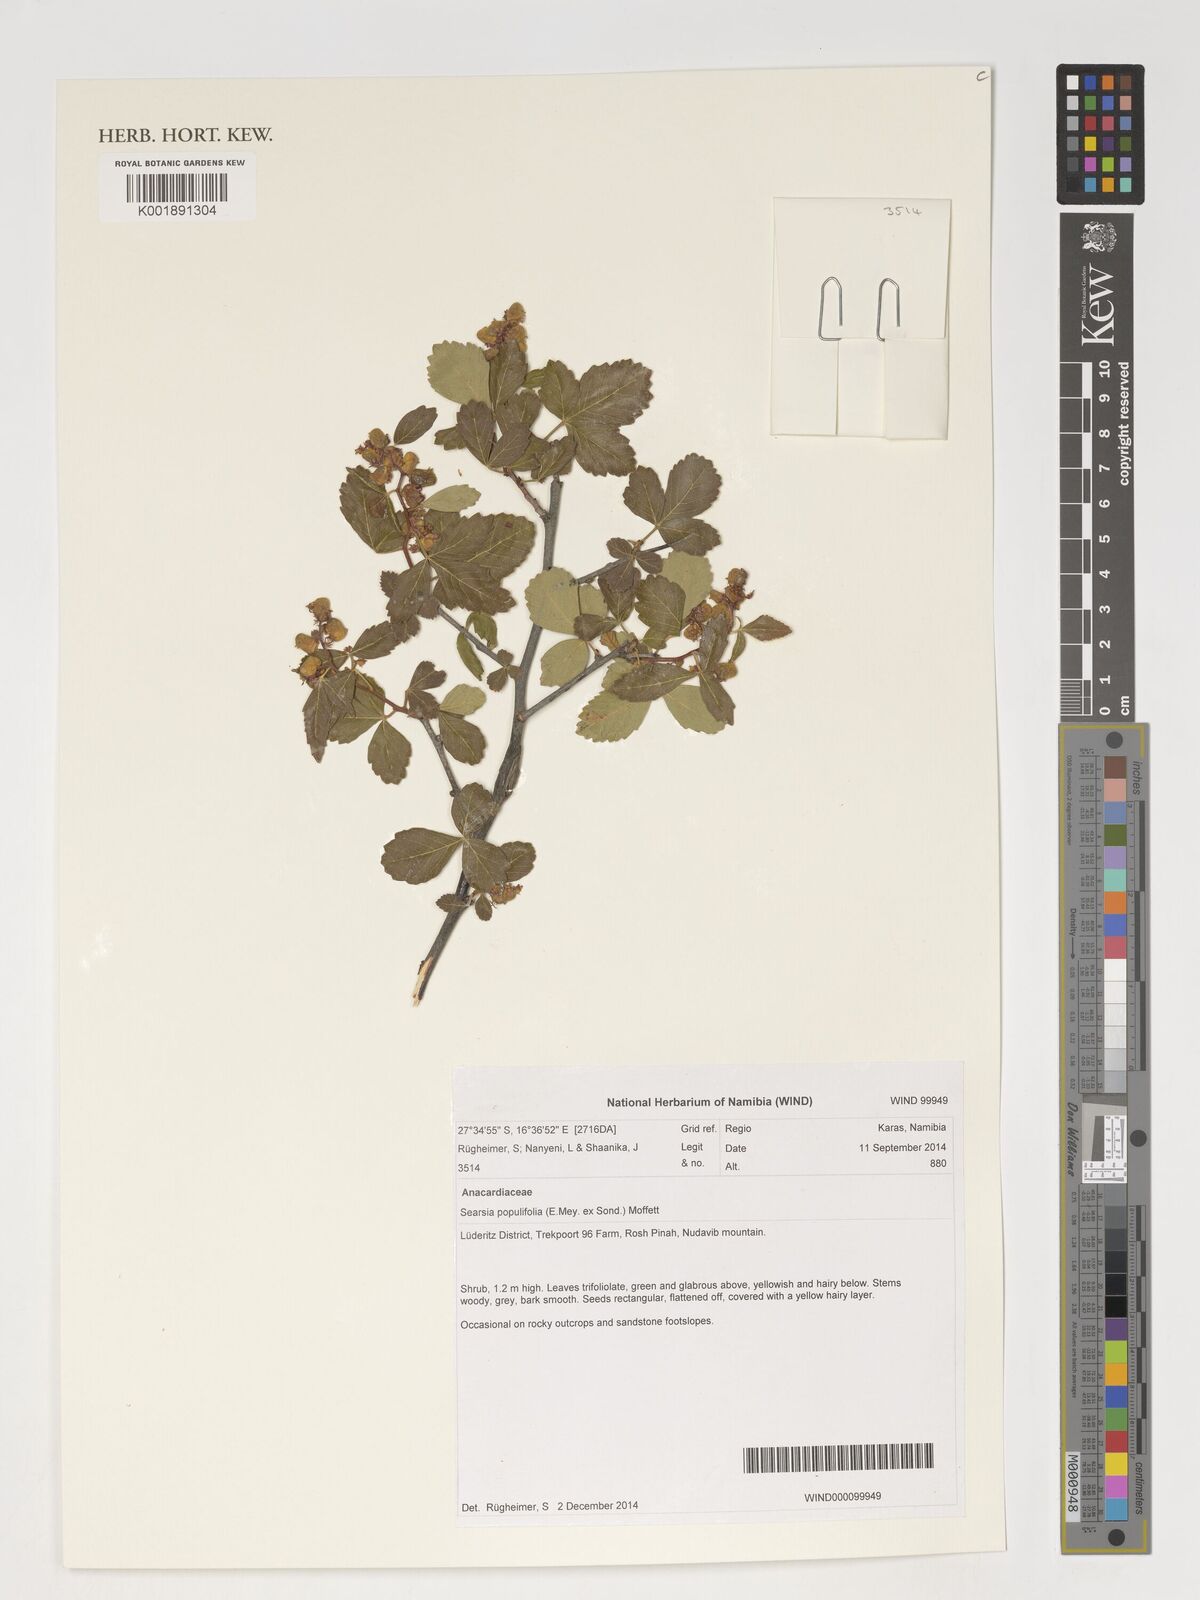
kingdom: Plantae
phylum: Tracheophyta
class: Magnoliopsida
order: Sapindales
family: Anacardiaceae
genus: Searsia
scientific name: Searsia populifolia
